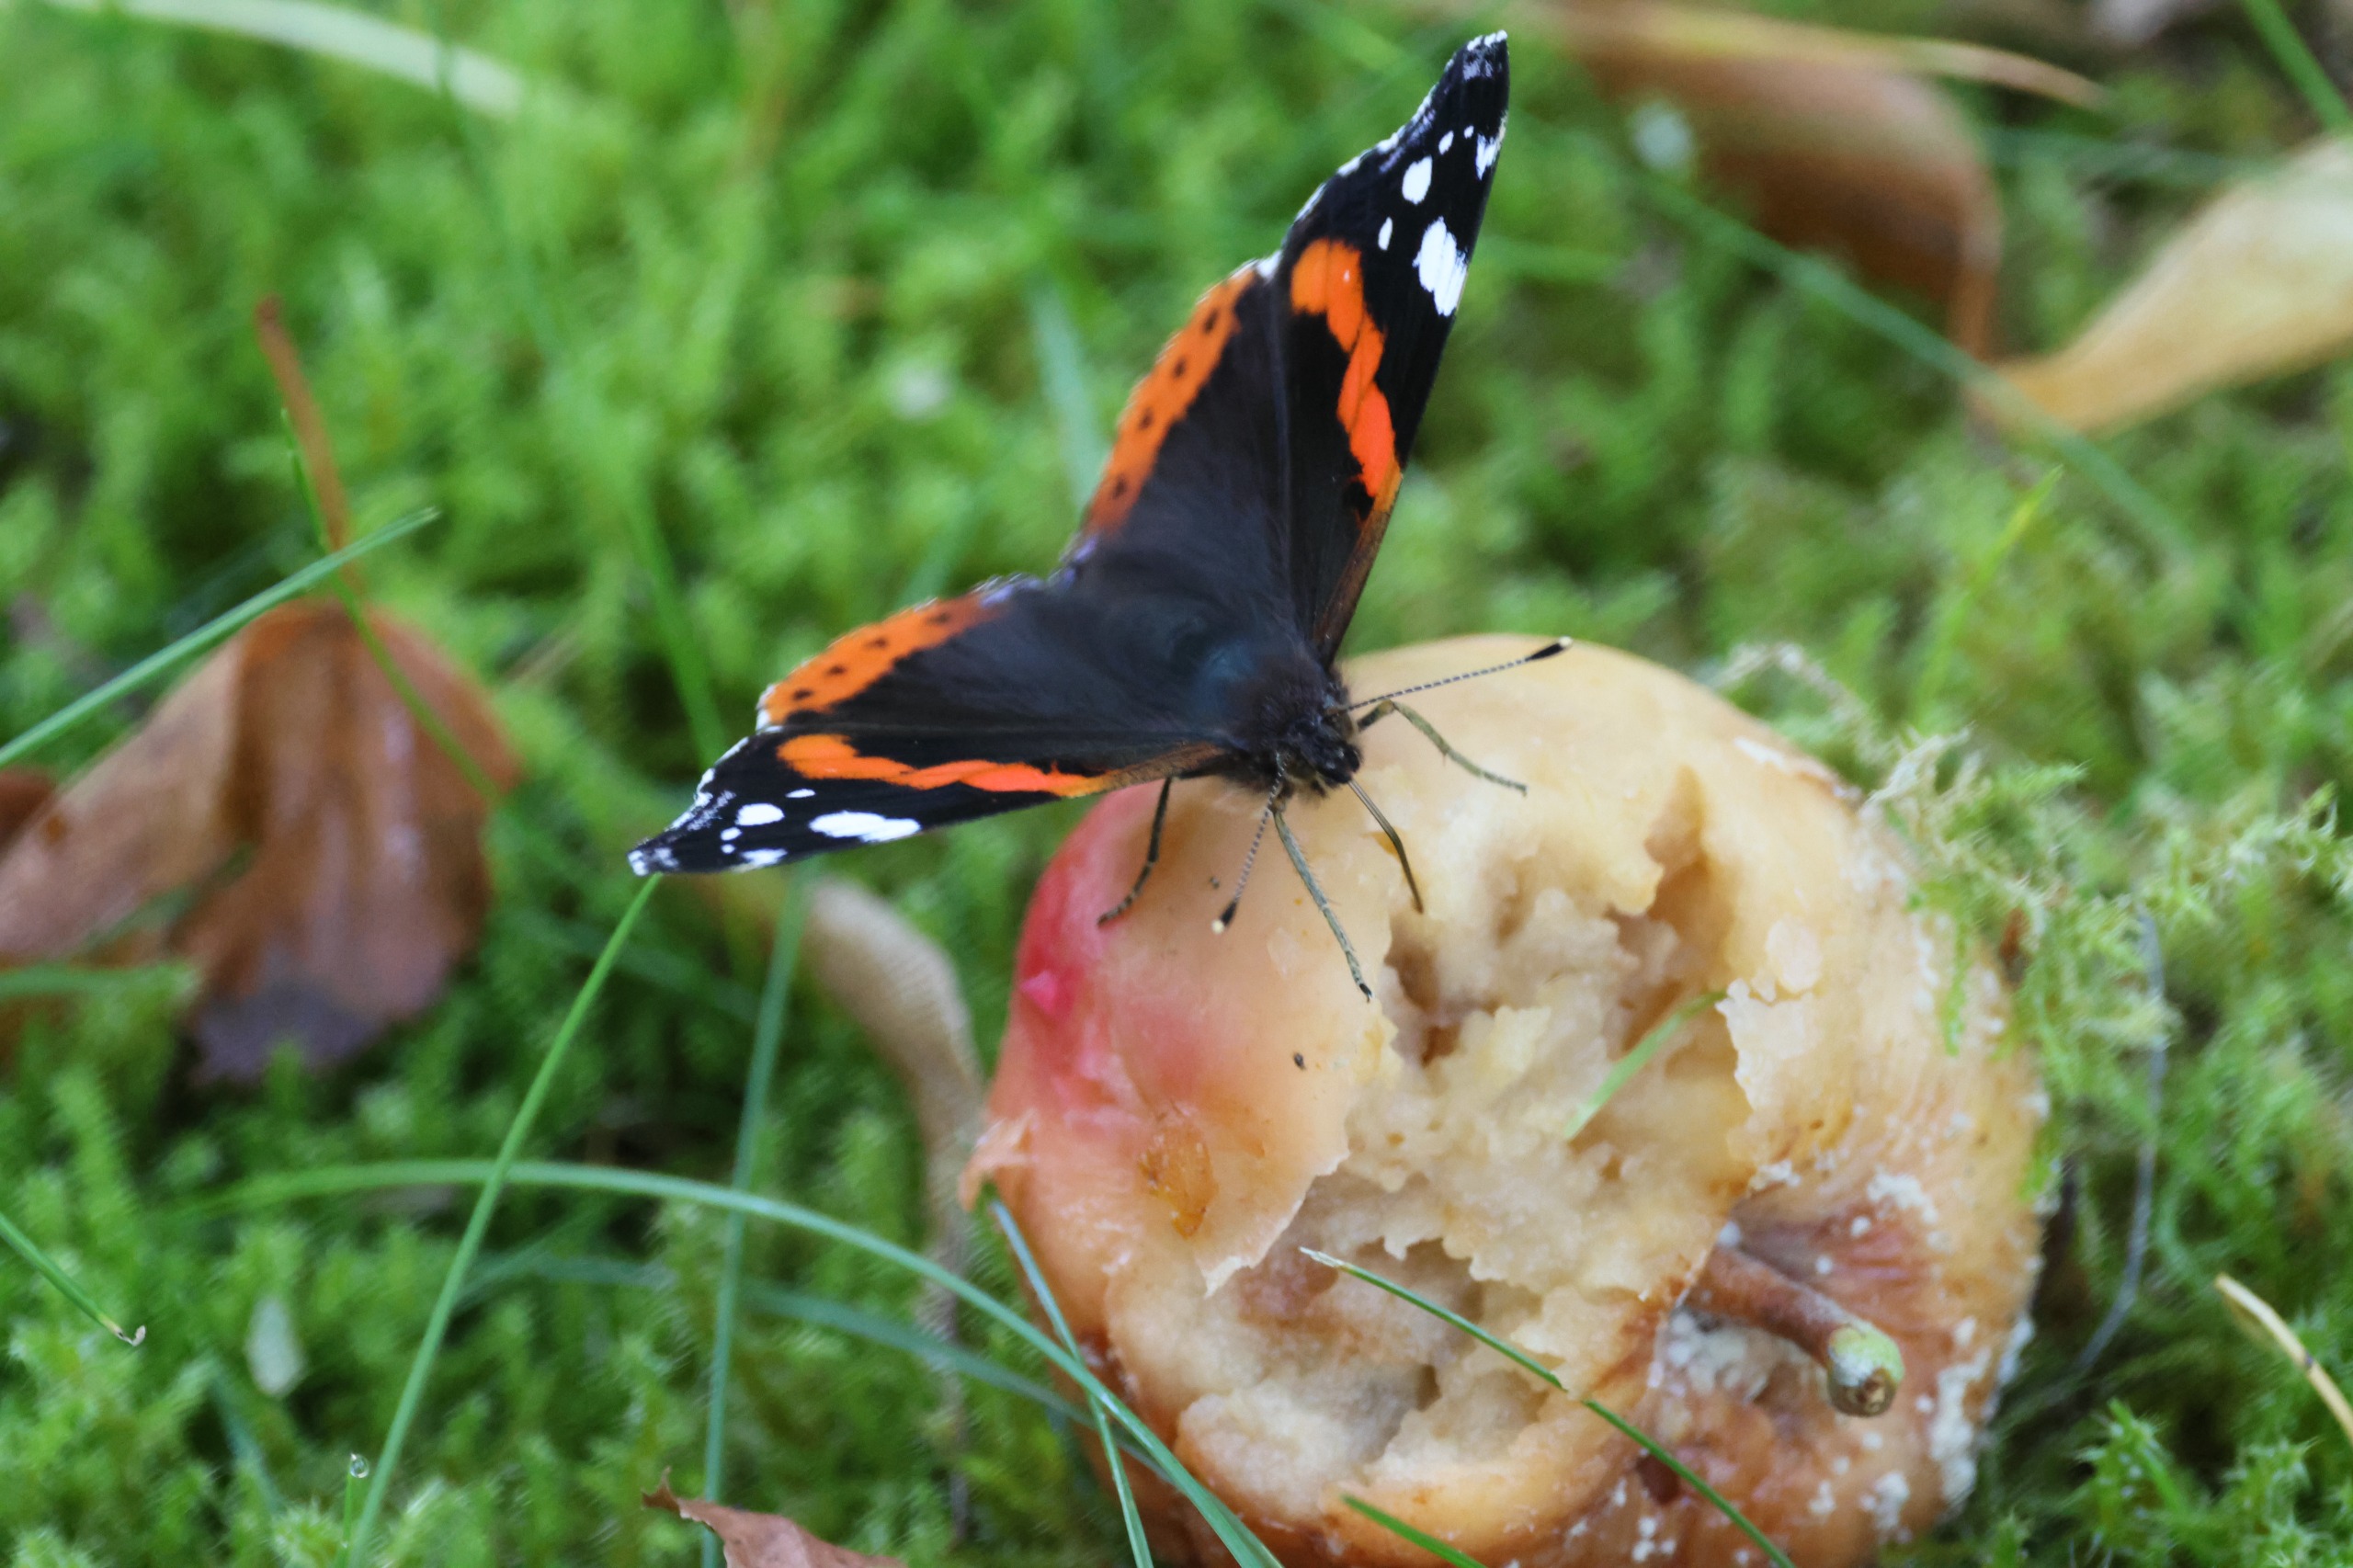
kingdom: Animalia
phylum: Arthropoda
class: Insecta
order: Lepidoptera
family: Nymphalidae
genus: Vanessa
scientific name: Vanessa atalanta
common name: Admiral
